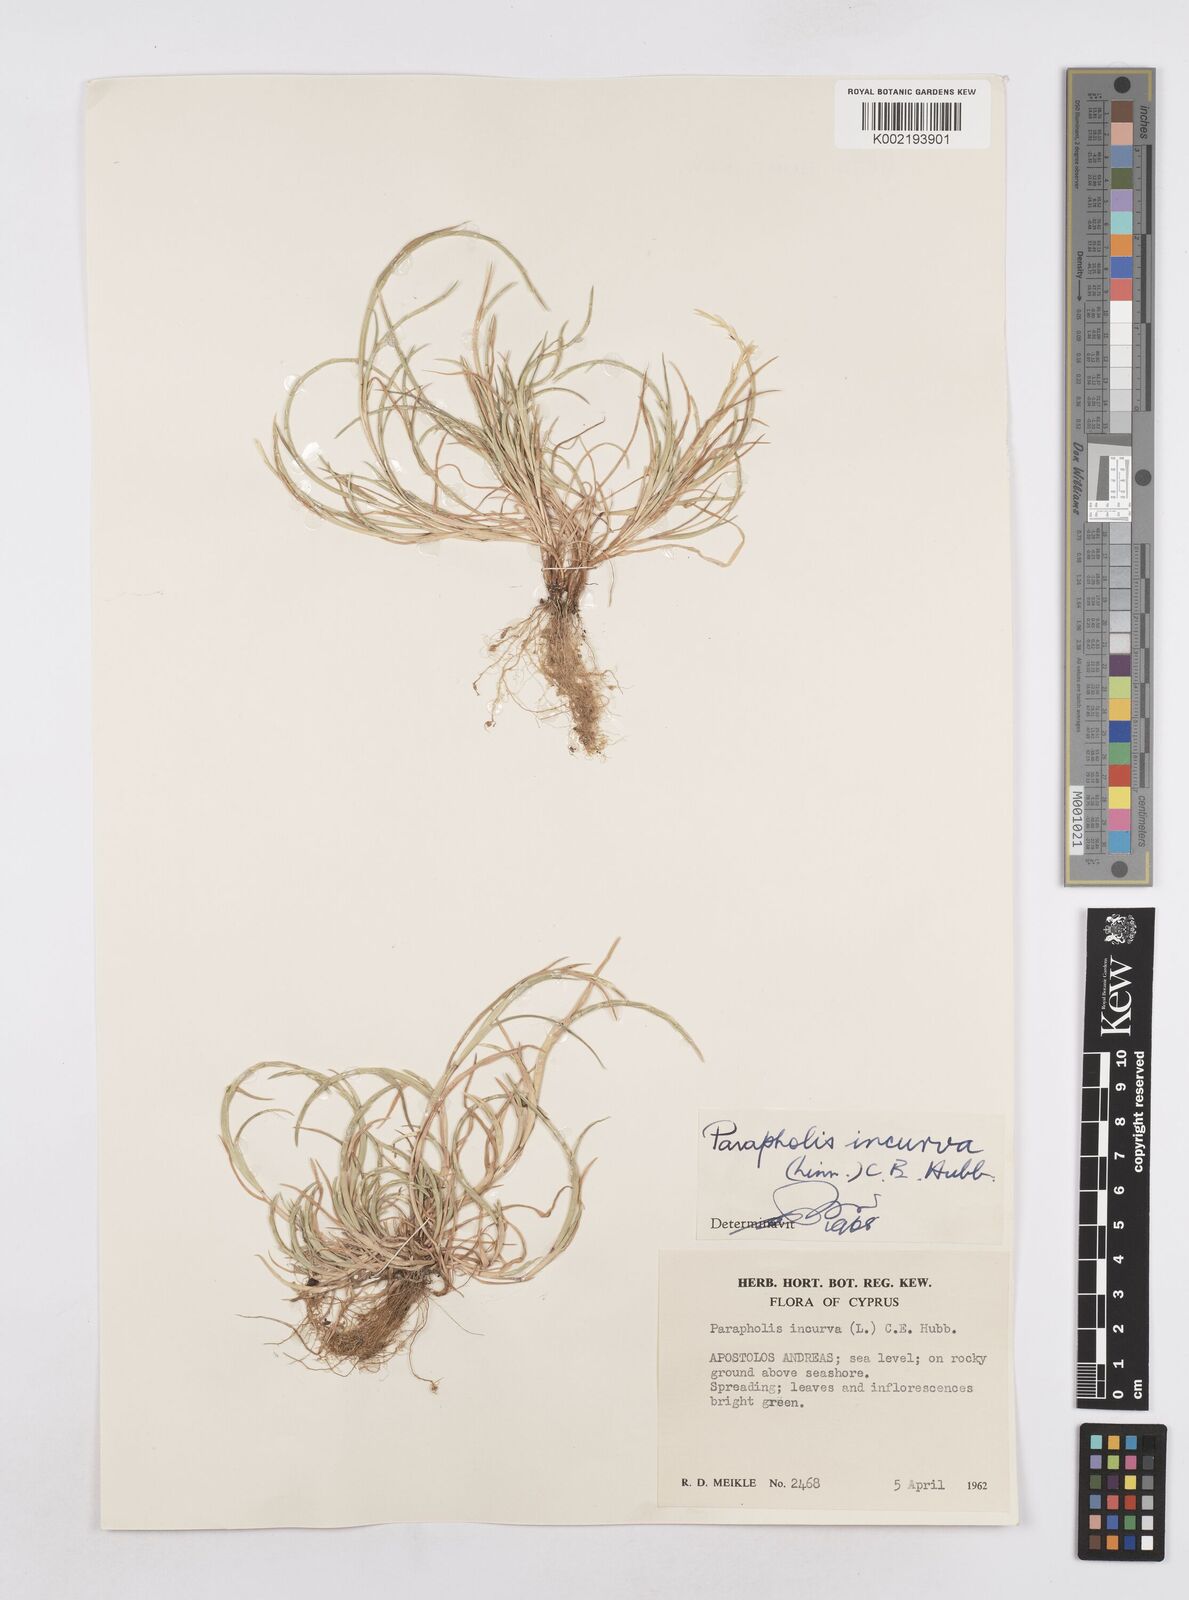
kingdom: Plantae
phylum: Tracheophyta
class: Liliopsida
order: Poales
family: Poaceae
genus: Parapholis
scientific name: Parapholis incurva
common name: Curved sicklegrass
